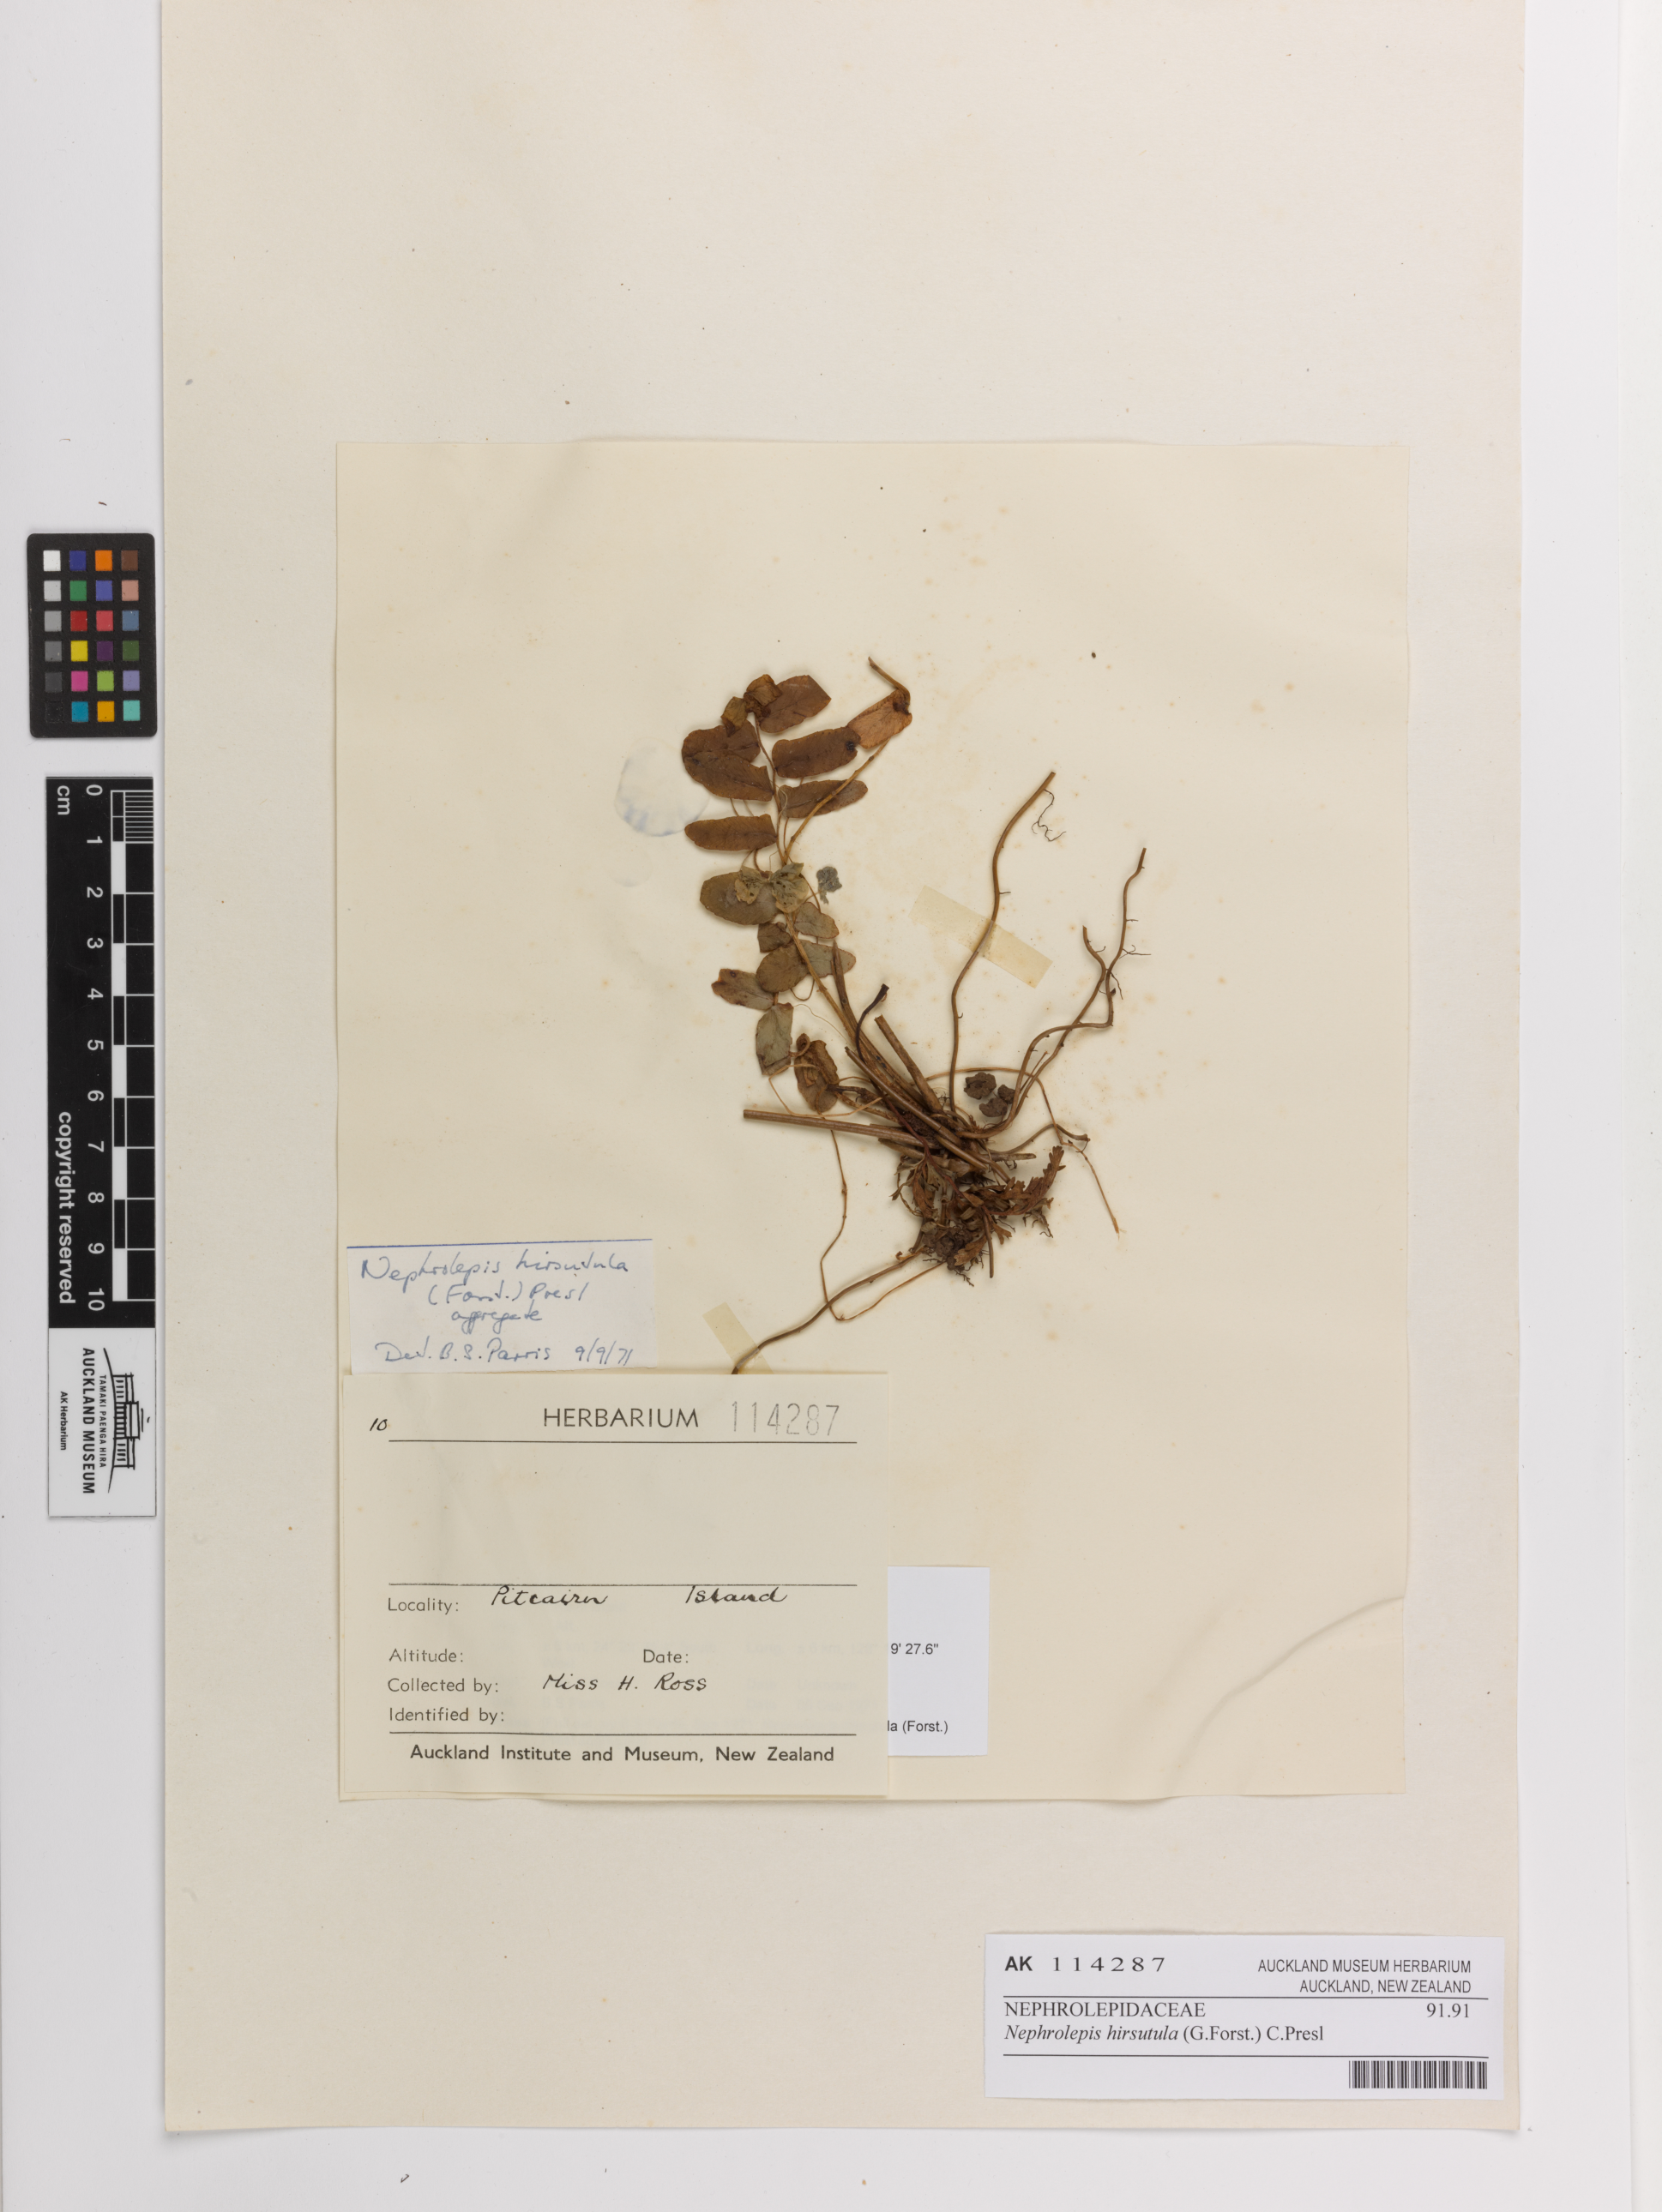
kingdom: Plantae
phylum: Tracheophyta
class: Polypodiopsida
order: Polypodiales
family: Nephrolepidaceae
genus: Nephrolepis
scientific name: Nephrolepis hirsutula
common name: Asian sword fern
